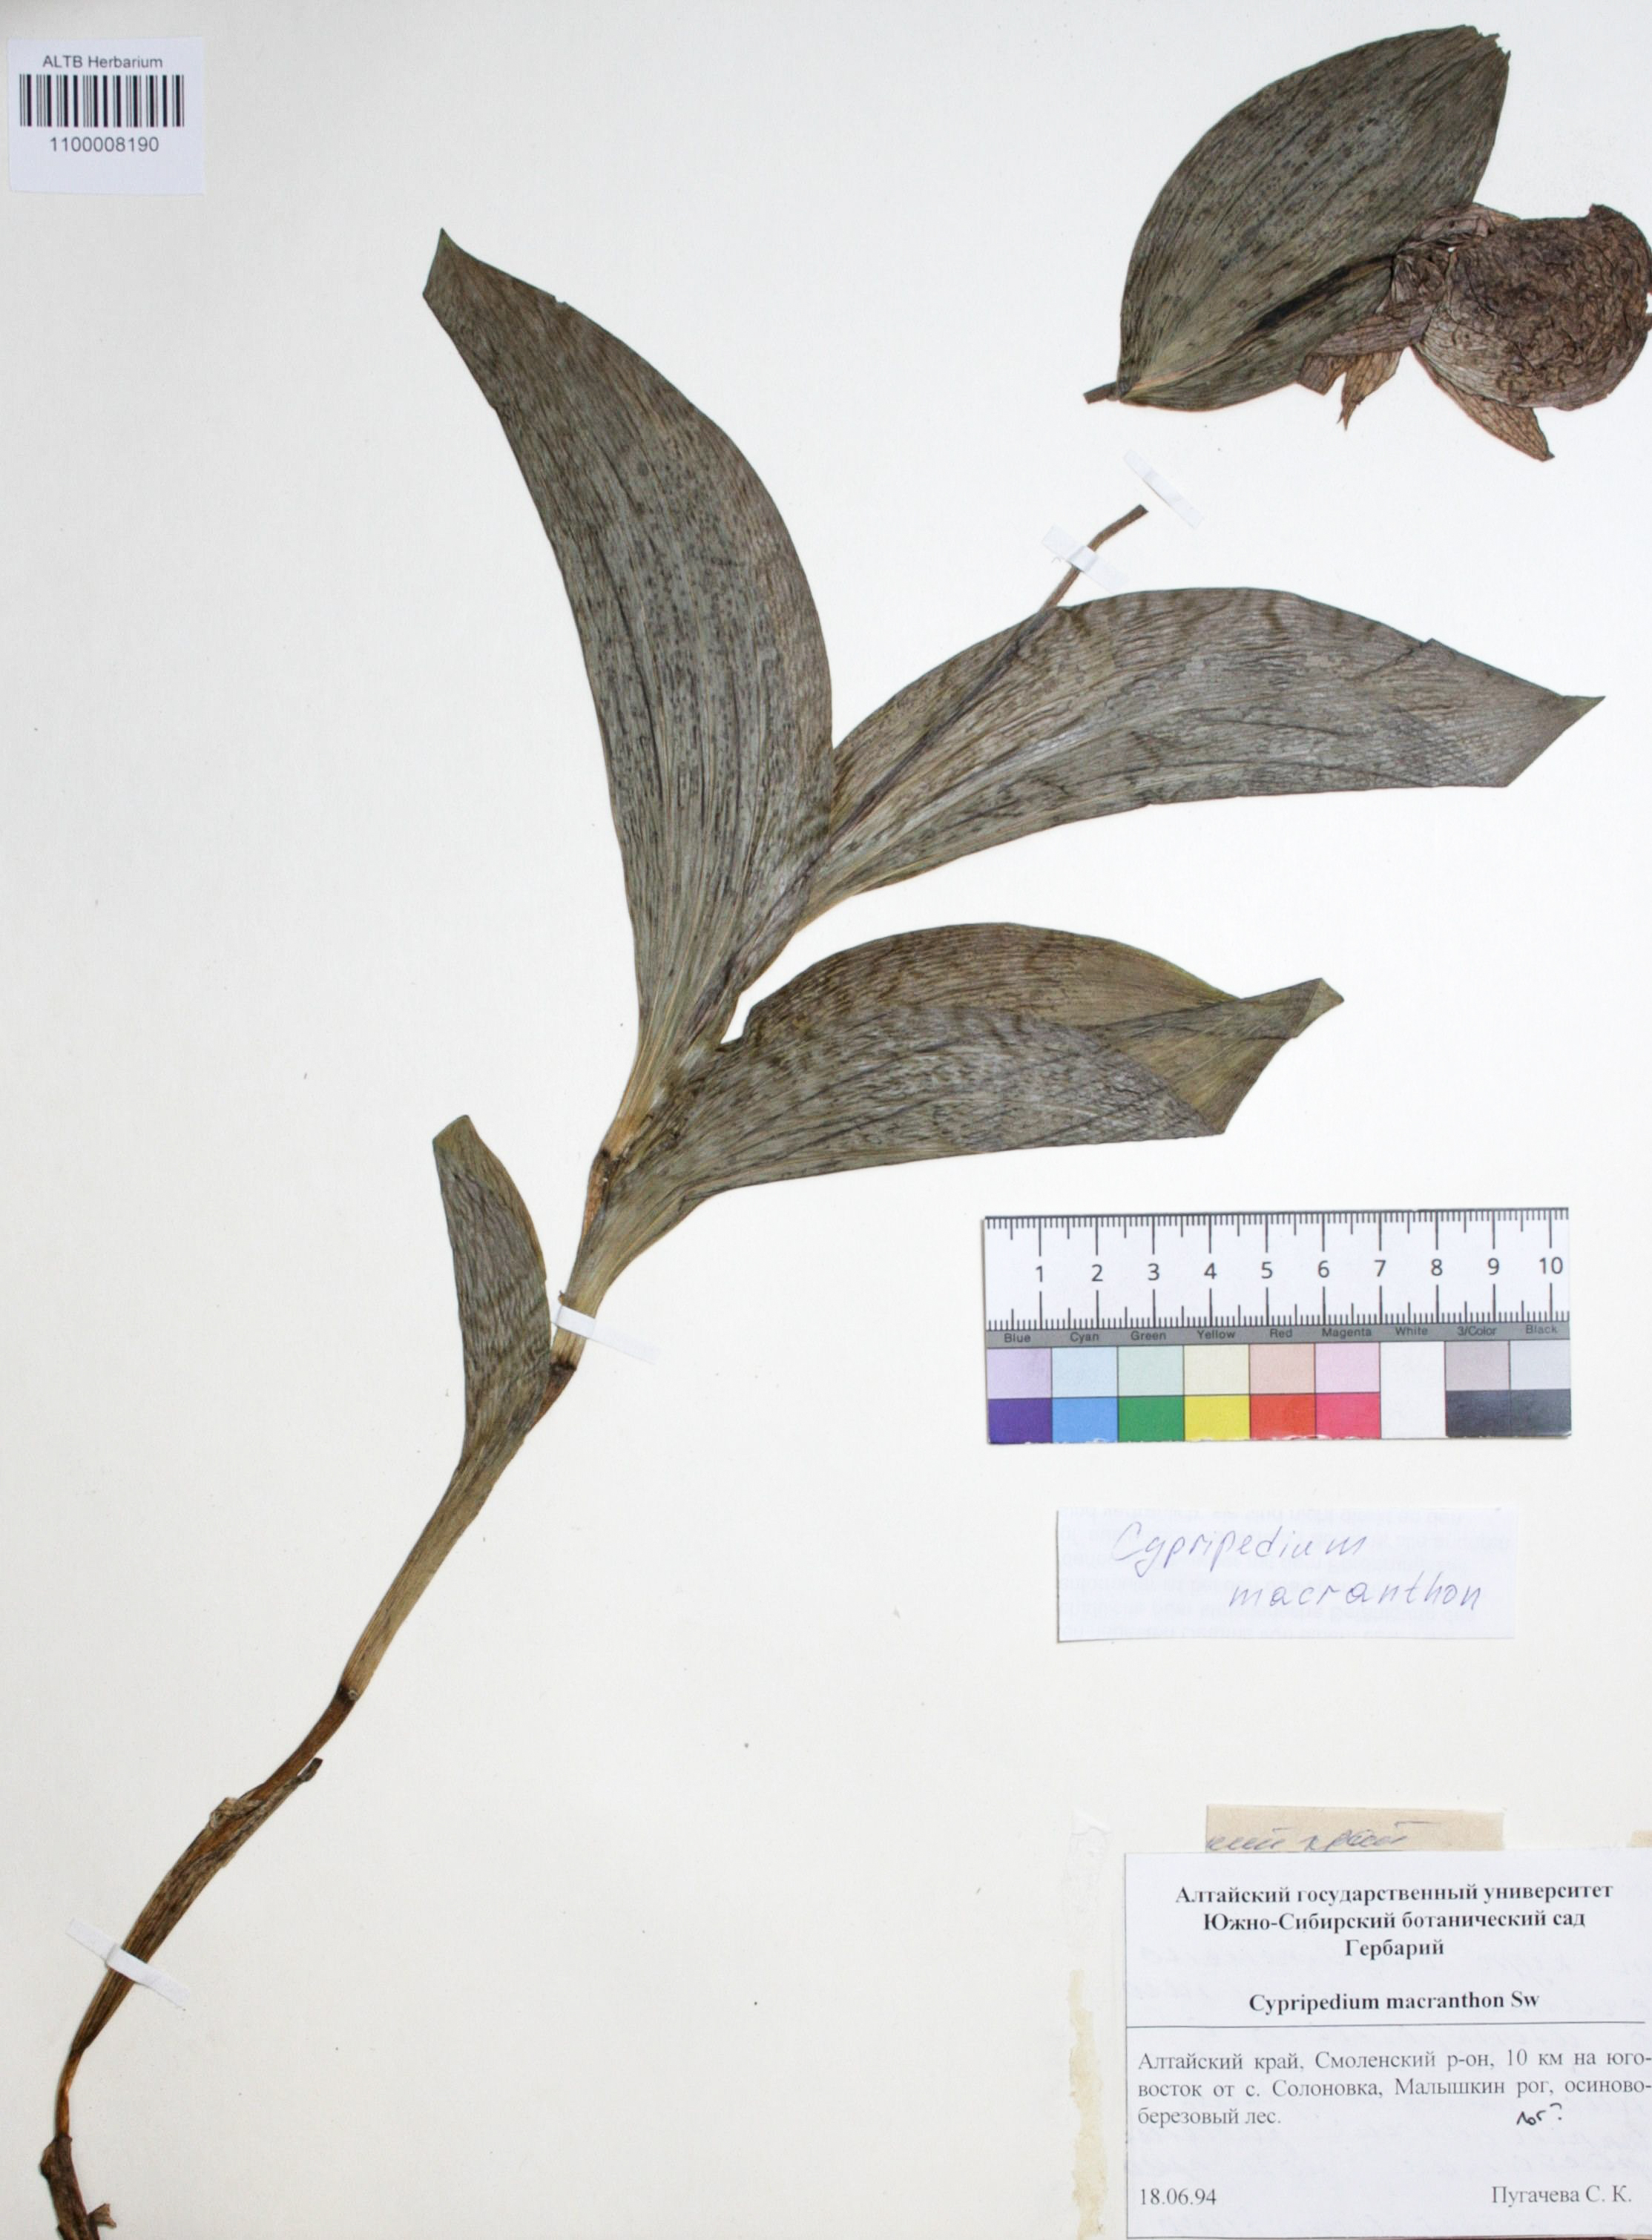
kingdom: Plantae
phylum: Tracheophyta
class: Liliopsida
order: Asparagales
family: Orchidaceae
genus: Cypripedium
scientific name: Cypripedium macranthon
